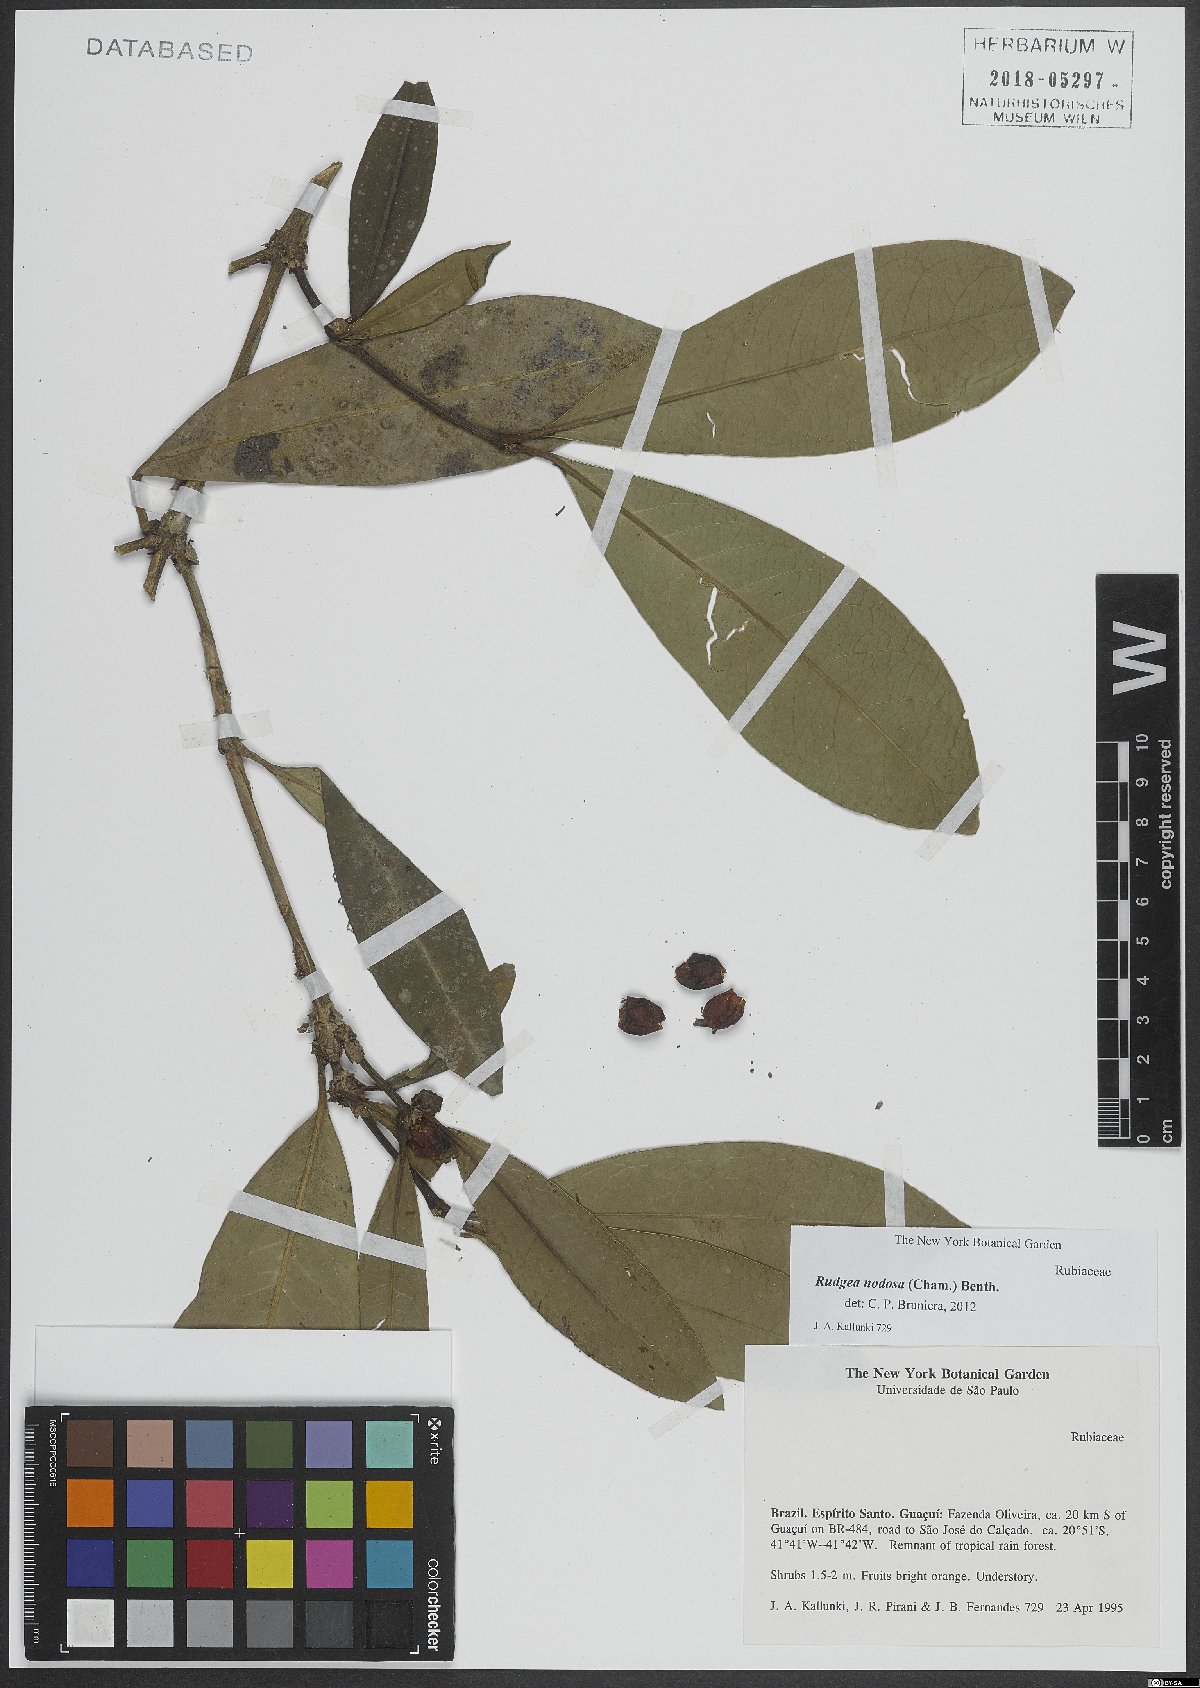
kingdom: Plantae
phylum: Tracheophyta
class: Magnoliopsida
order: Gentianales
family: Rubiaceae
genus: Rudgea
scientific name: Rudgea nodosa
